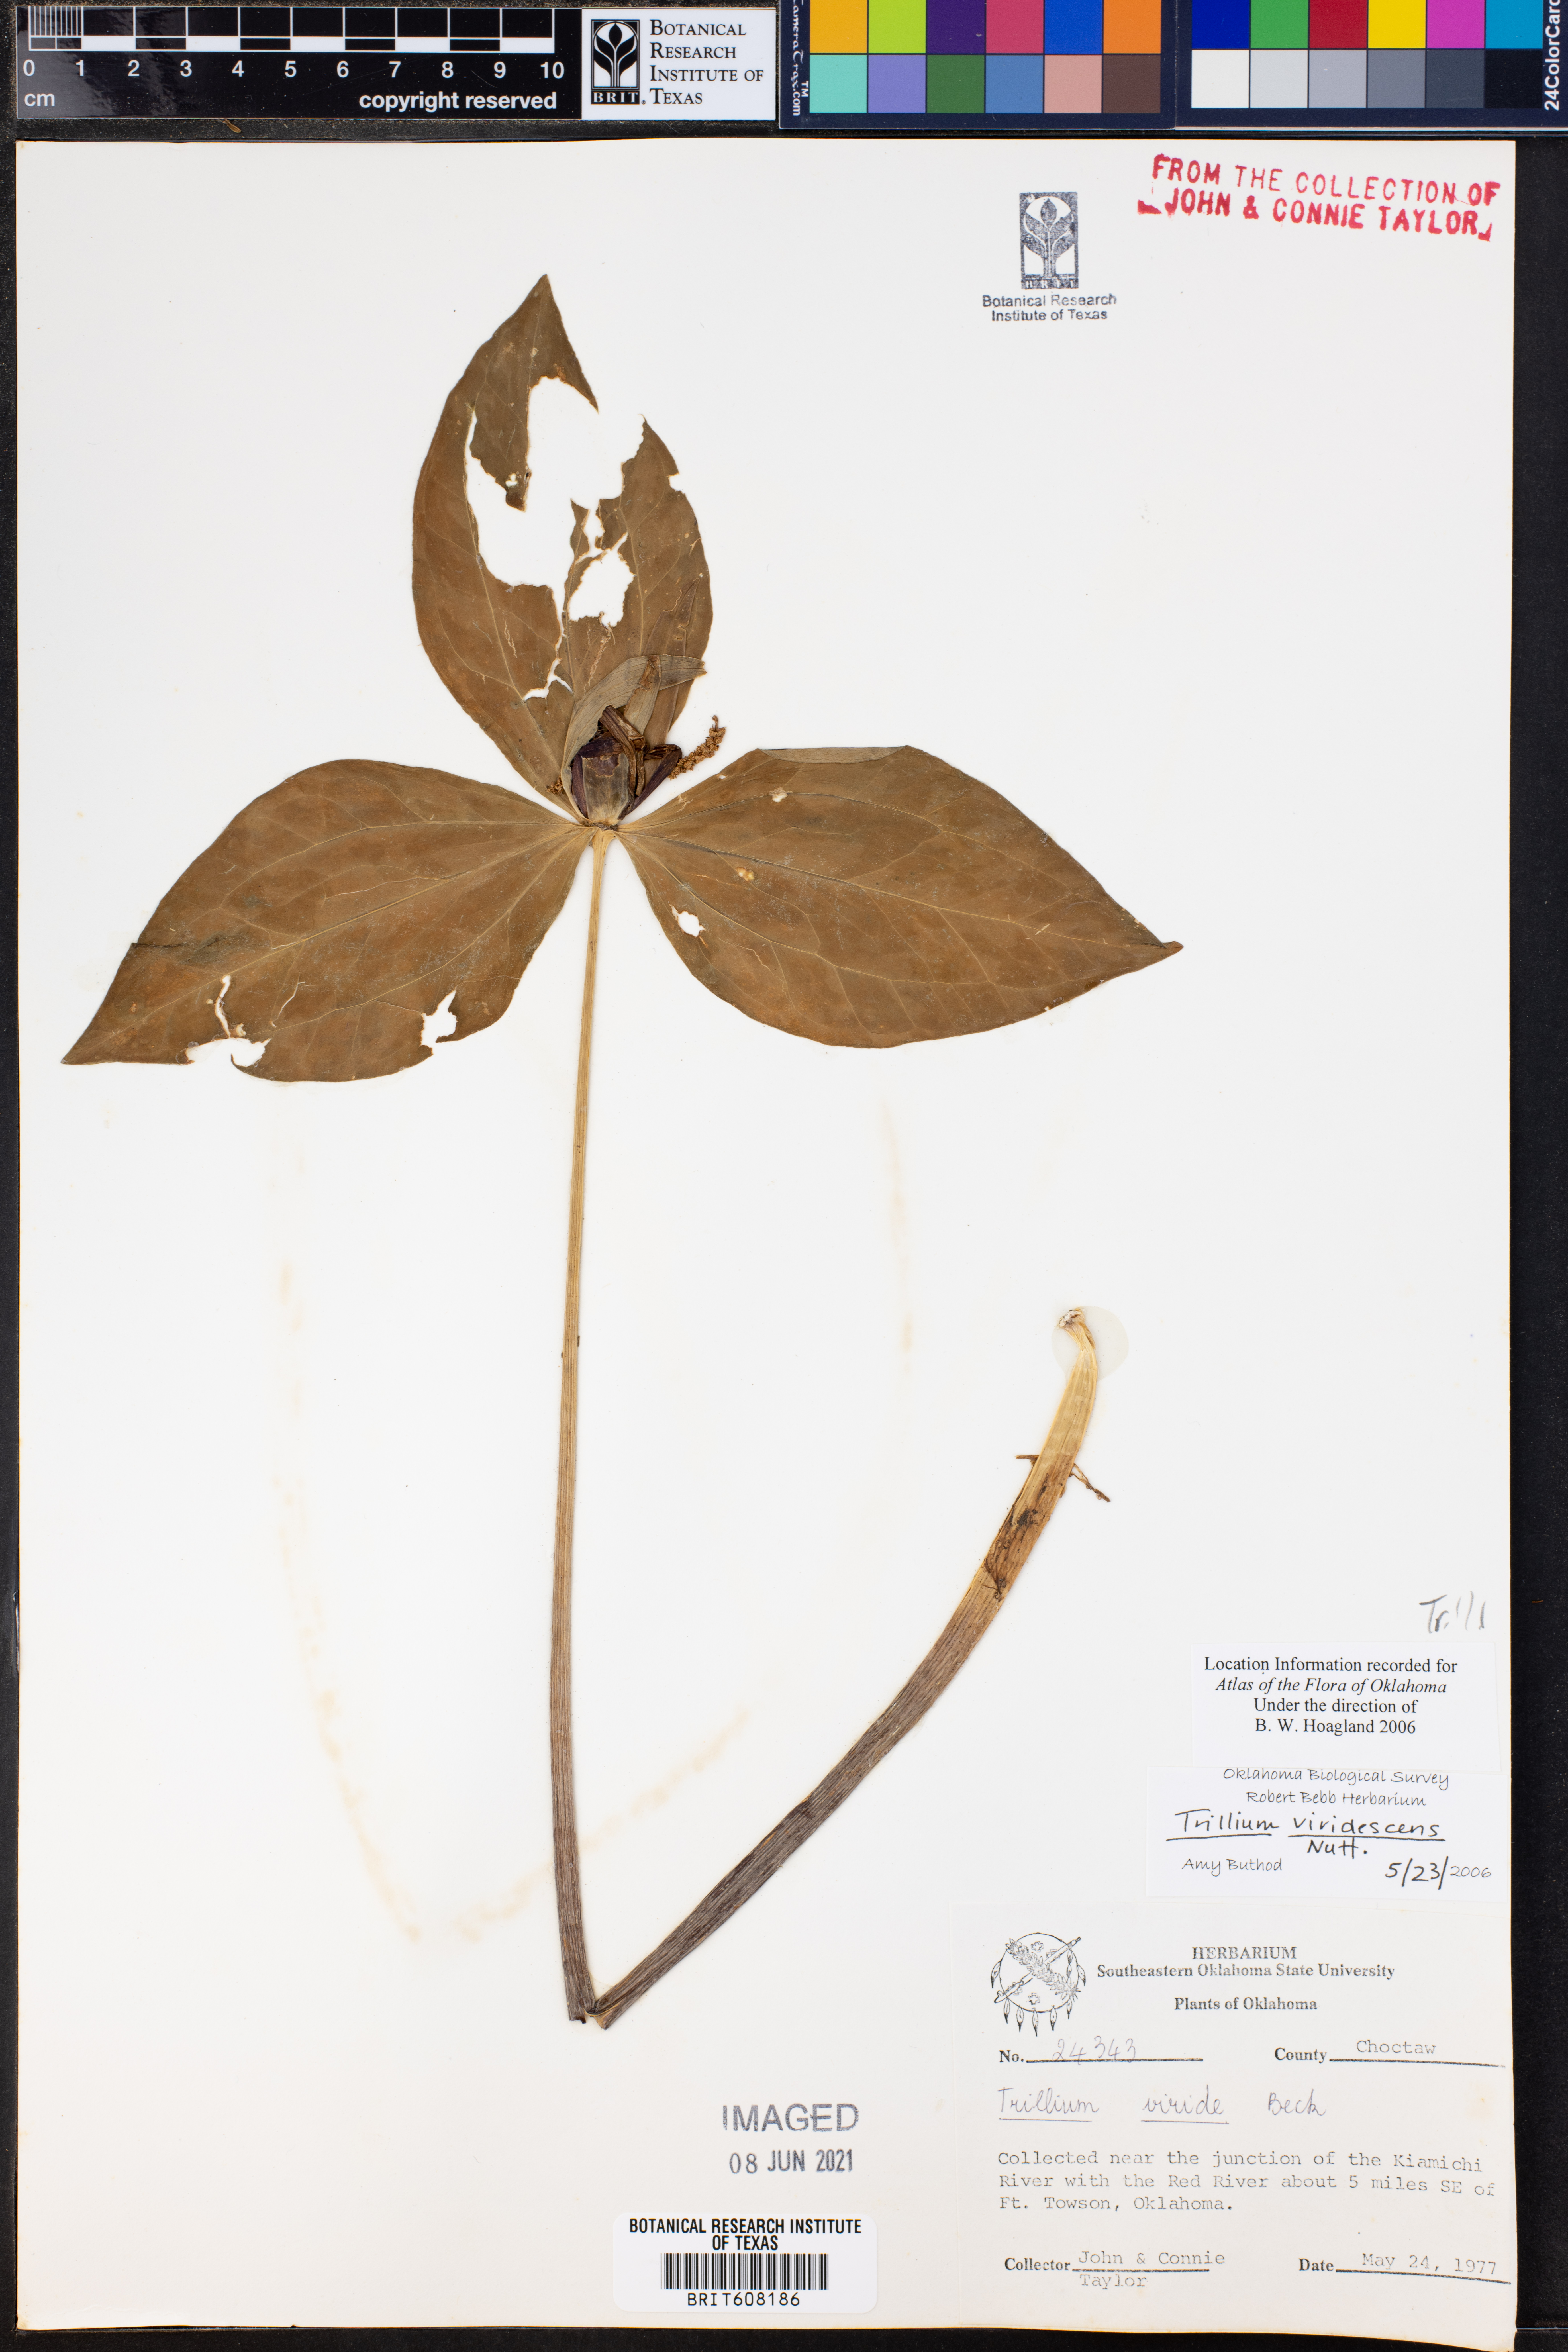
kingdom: Plantae
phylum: Tracheophyta
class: Liliopsida
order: Liliales
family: Melanthiaceae
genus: Trillium
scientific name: Trillium viridescens
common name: Ozark green trillium
